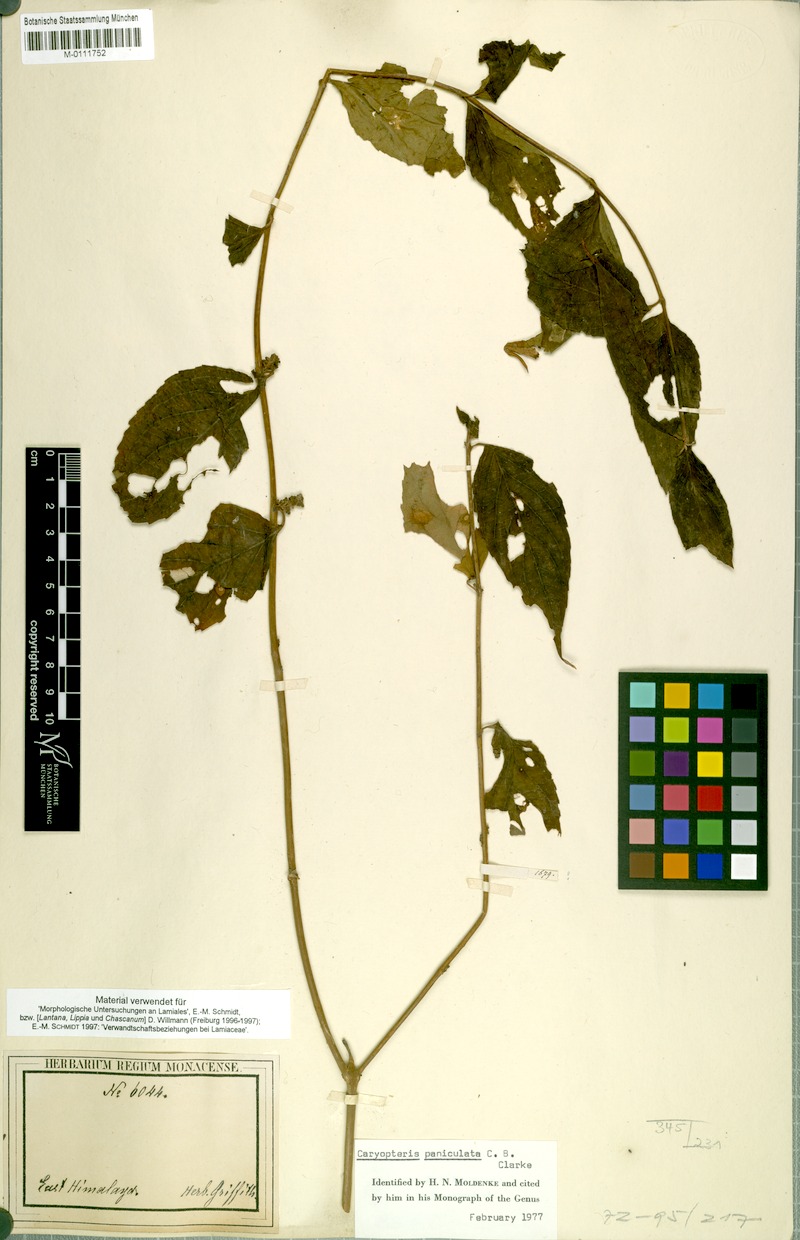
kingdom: Plantae
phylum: Tracheophyta
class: Magnoliopsida
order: Lamiales
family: Lamiaceae
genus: Pseudocaryopteris
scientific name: Pseudocaryopteris foetida
